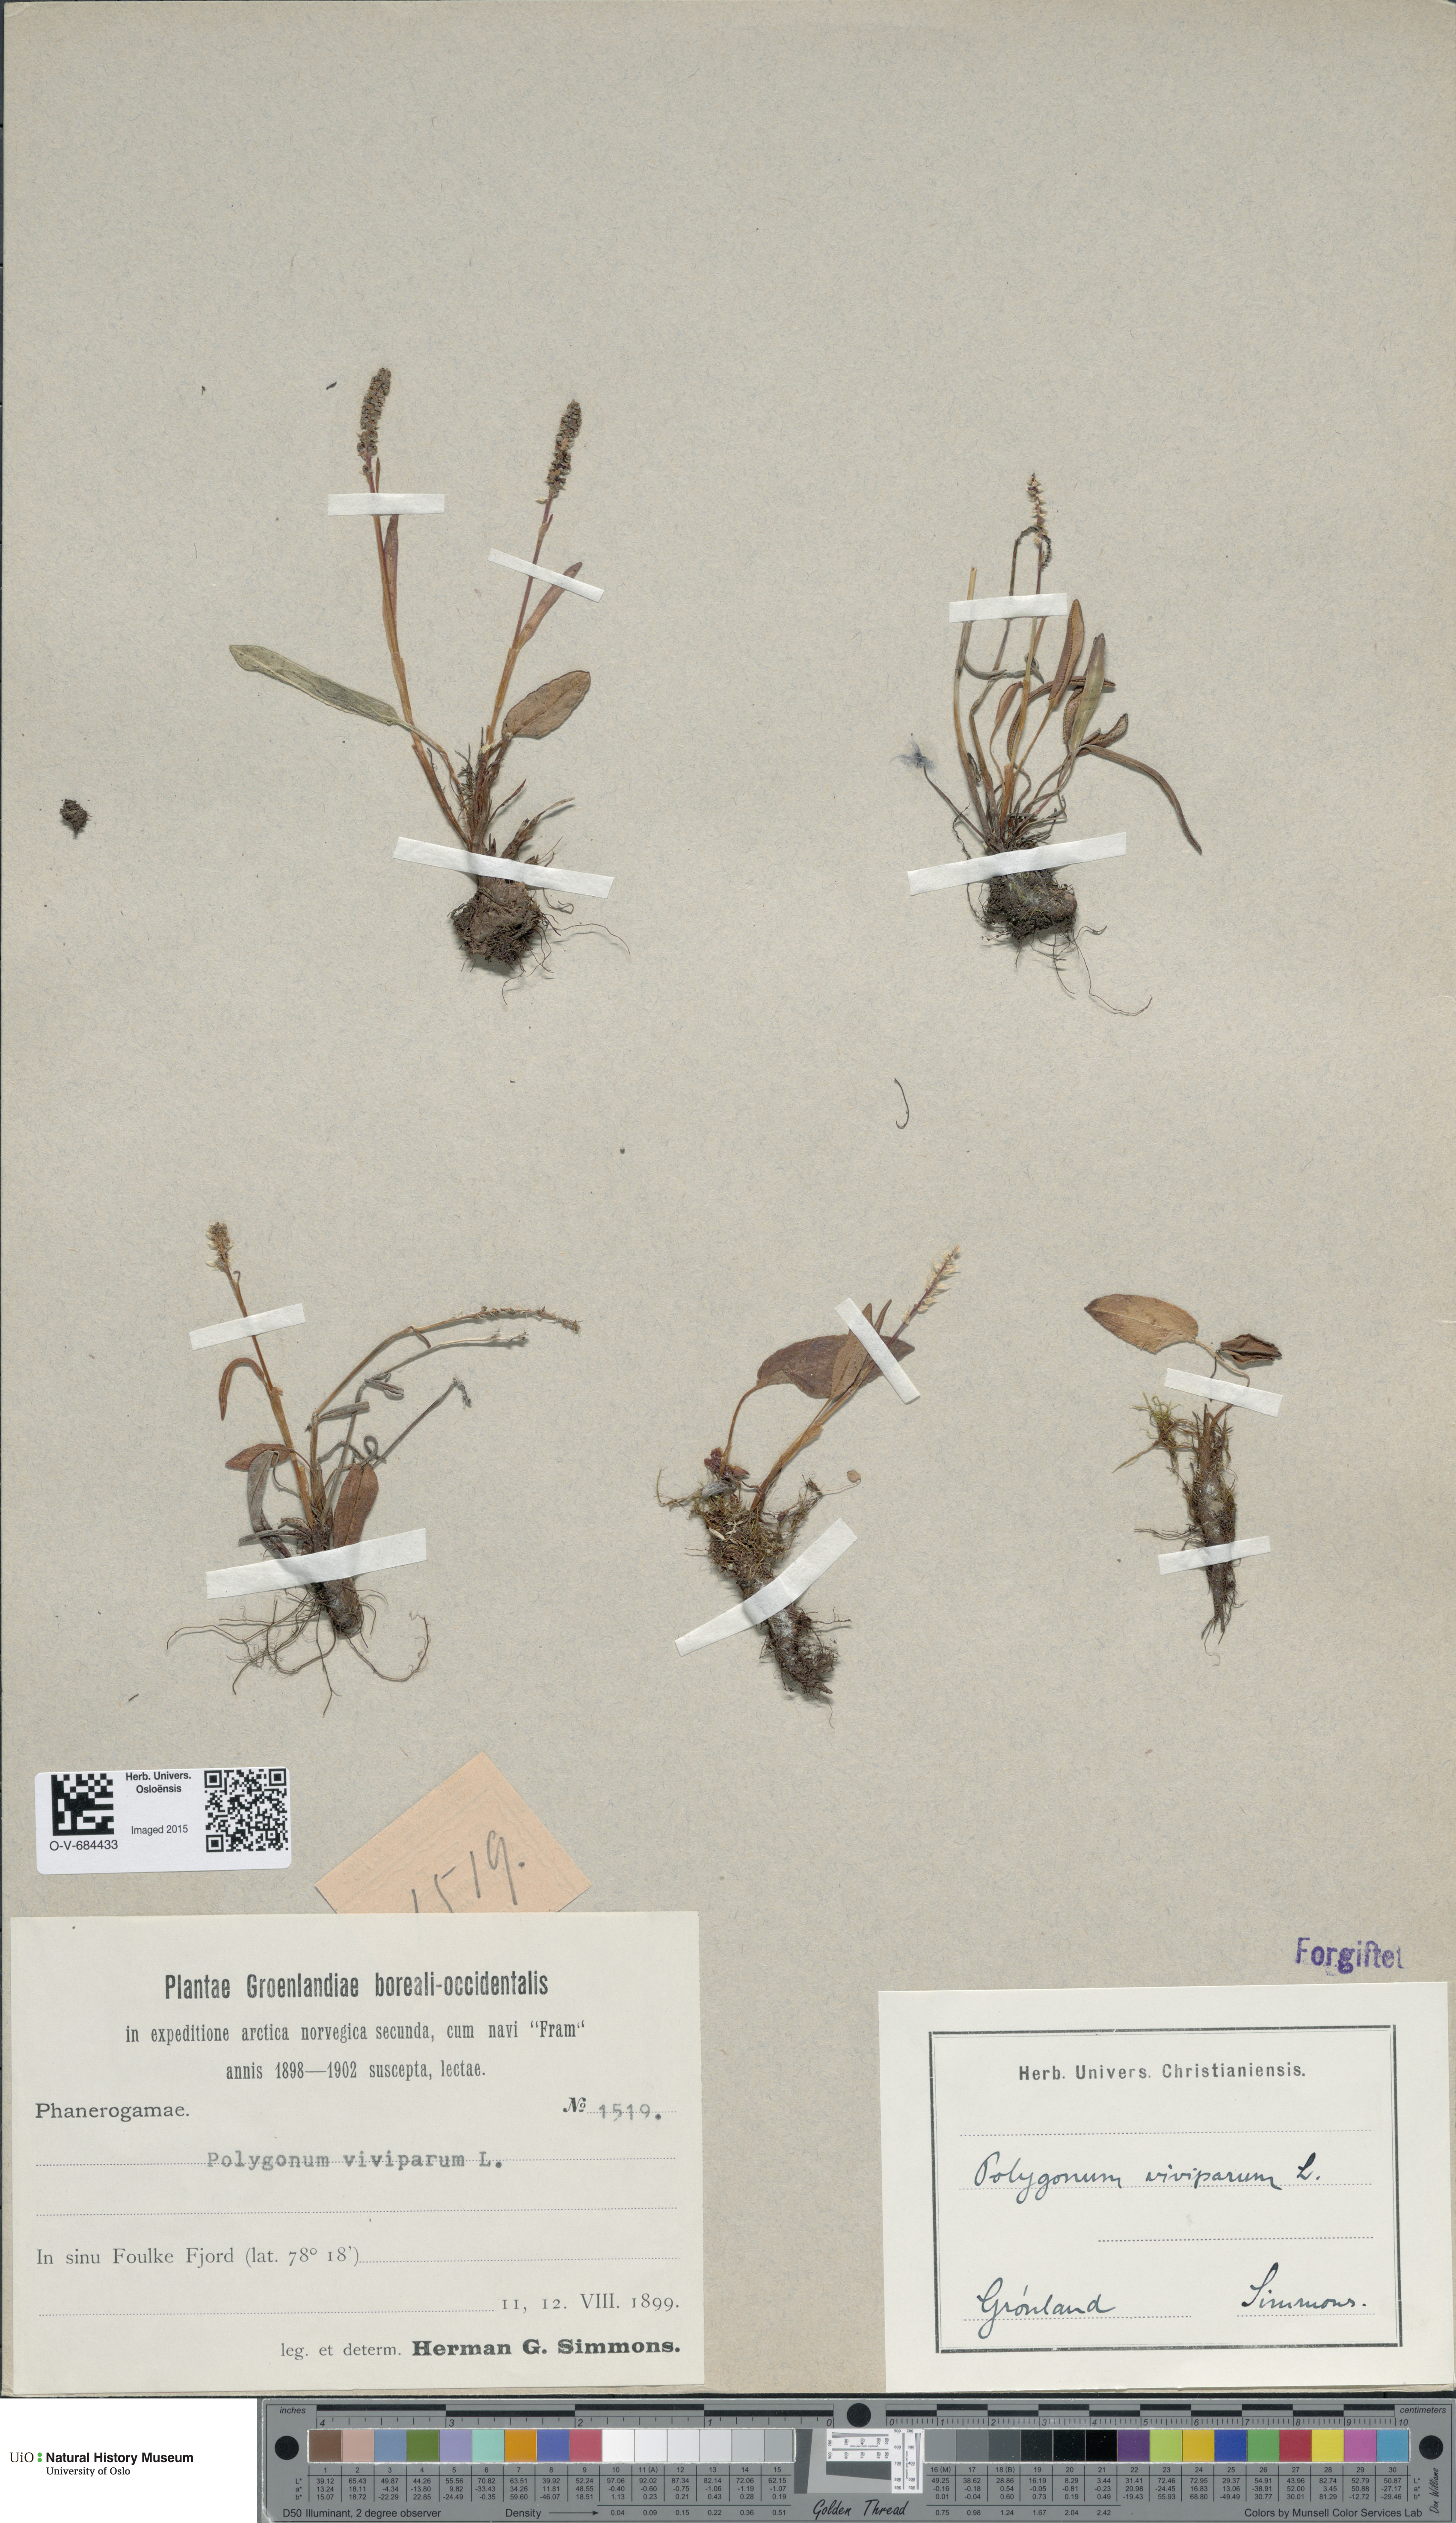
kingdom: Plantae
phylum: Tracheophyta
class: Magnoliopsida
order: Caryophyllales
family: Polygonaceae
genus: Bistorta
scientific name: Bistorta vivipara
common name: Alpine bistort
